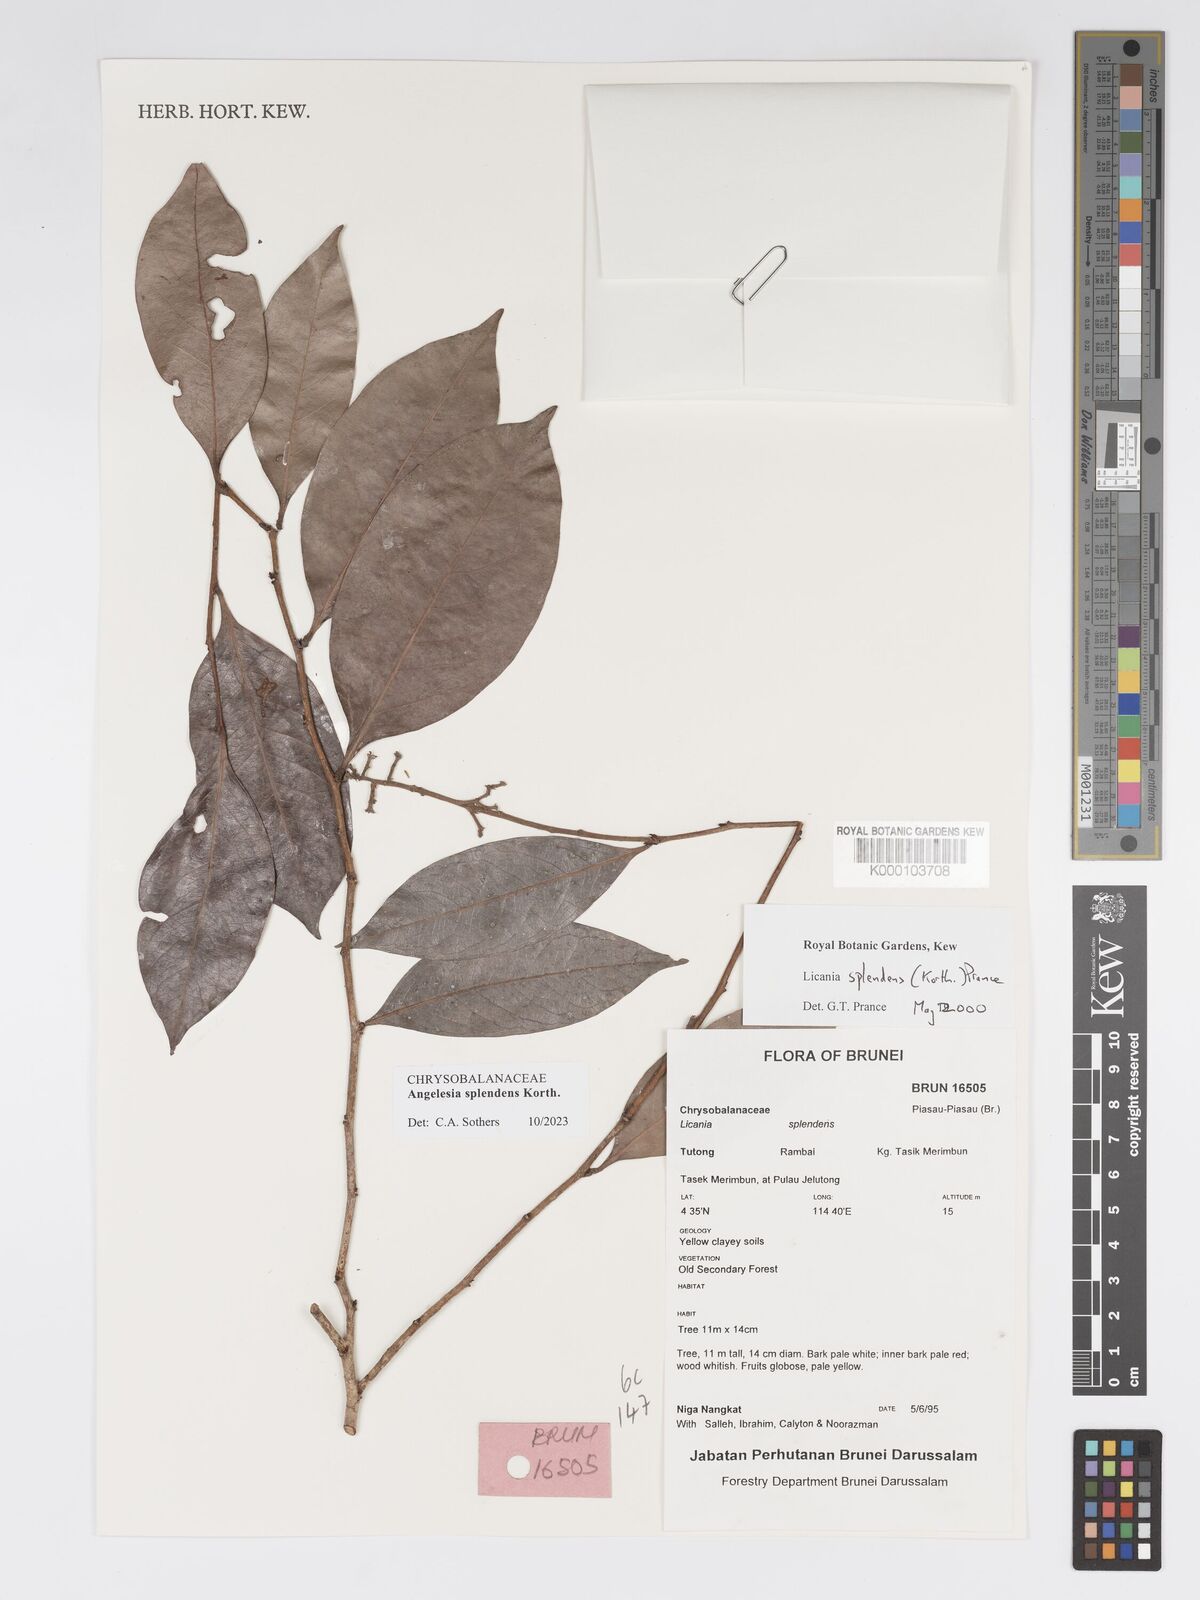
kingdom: Plantae
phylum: Tracheophyta
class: Magnoliopsida
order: Malpighiales
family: Chrysobalanaceae
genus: Angelesia
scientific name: Angelesia splendens
